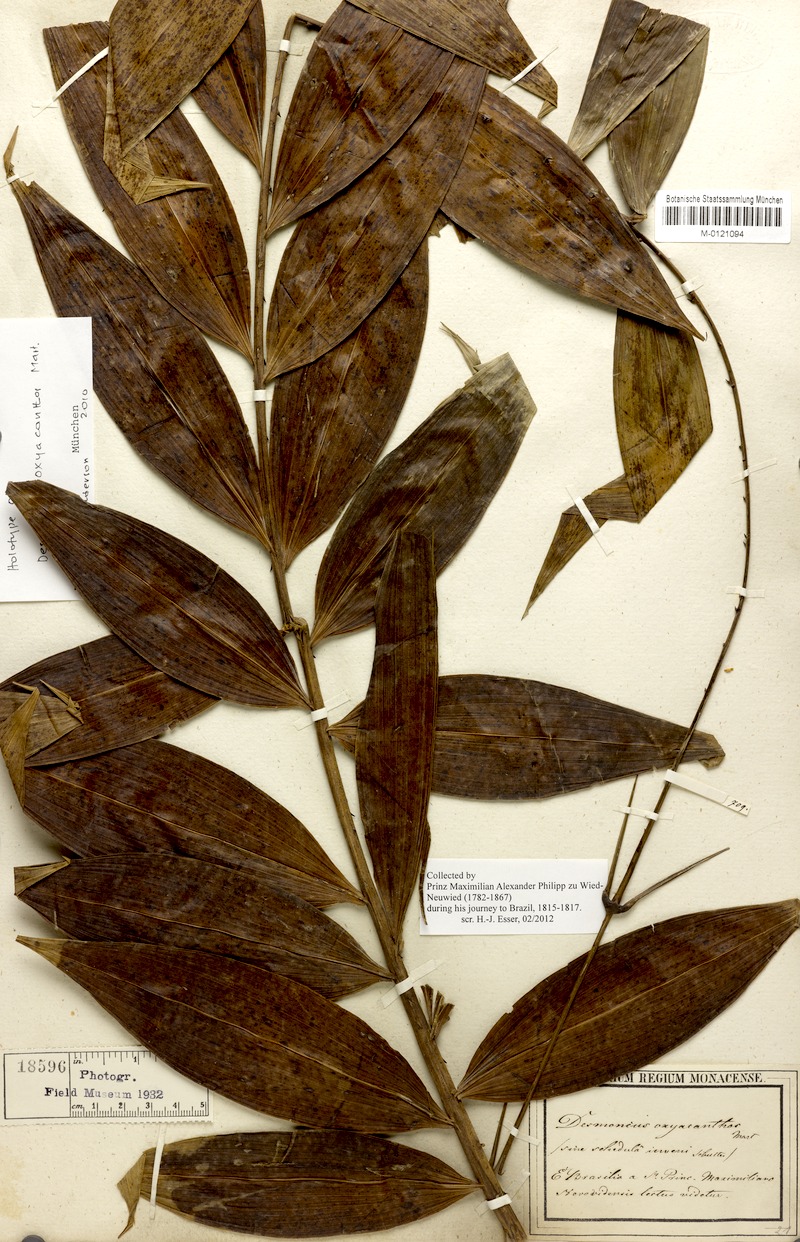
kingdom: Plantae
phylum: Tracheophyta
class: Liliopsida
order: Arecales
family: Arecaceae
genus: Desmoncus
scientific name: Desmoncus polyacanthos
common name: Suriname bramble palm
